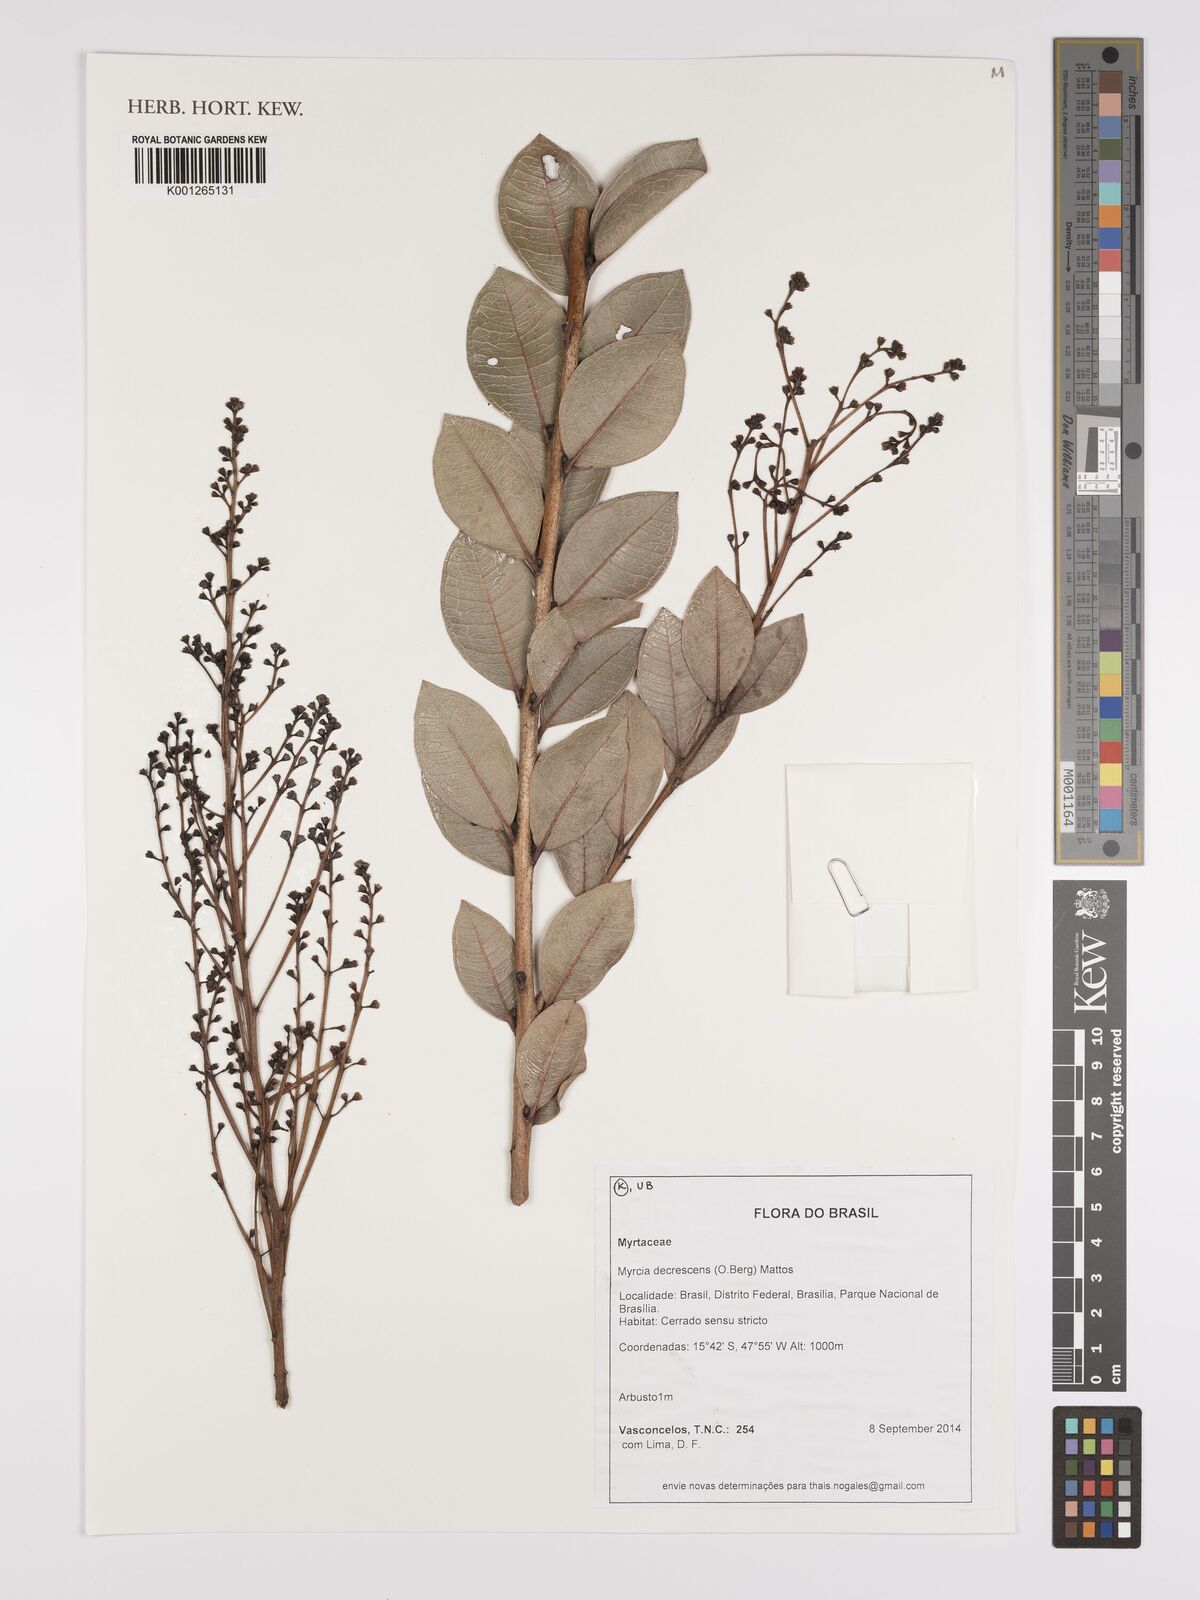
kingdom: Plantae
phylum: Tracheophyta
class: Magnoliopsida
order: Myrtales
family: Myrtaceae
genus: Myrcia
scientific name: Myrcia guianensis
